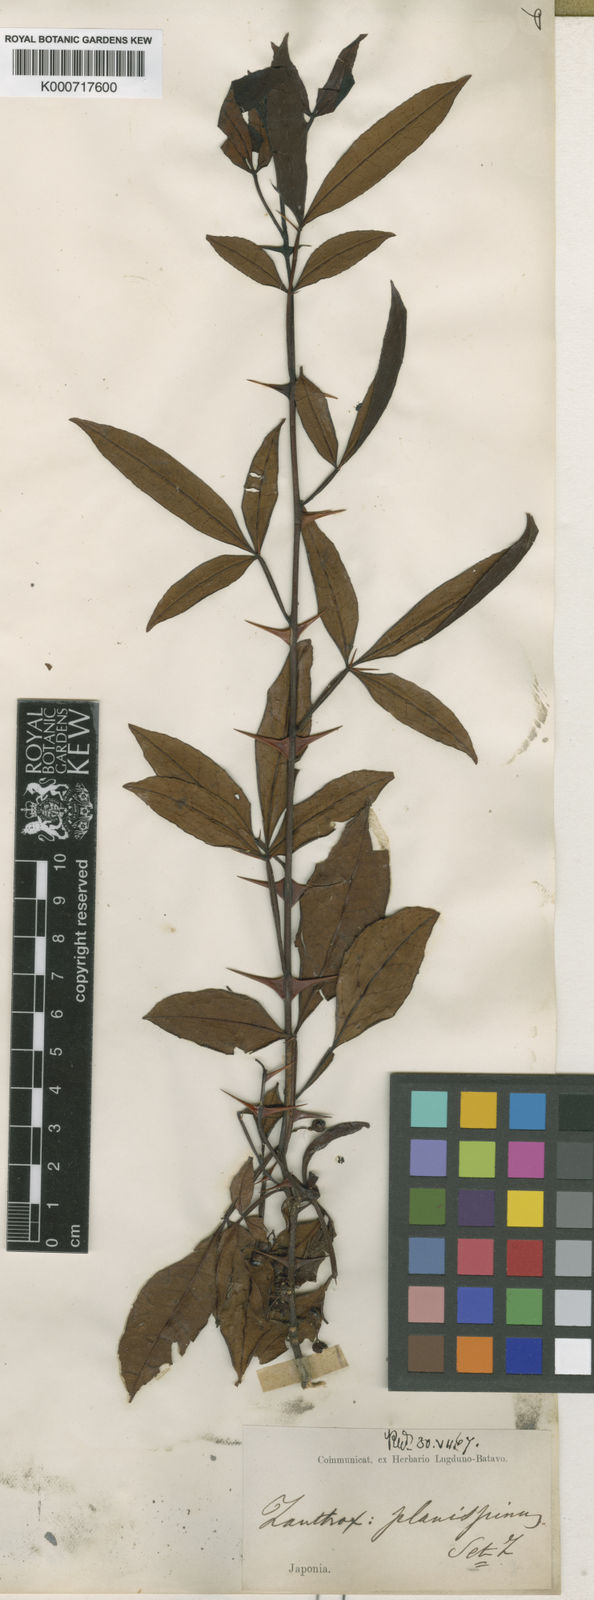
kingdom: Plantae
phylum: Tracheophyta
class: Magnoliopsida
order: Sapindales
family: Rutaceae
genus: Zanthoxylum
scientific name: Zanthoxylum armatum
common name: Winged prickly-ash
